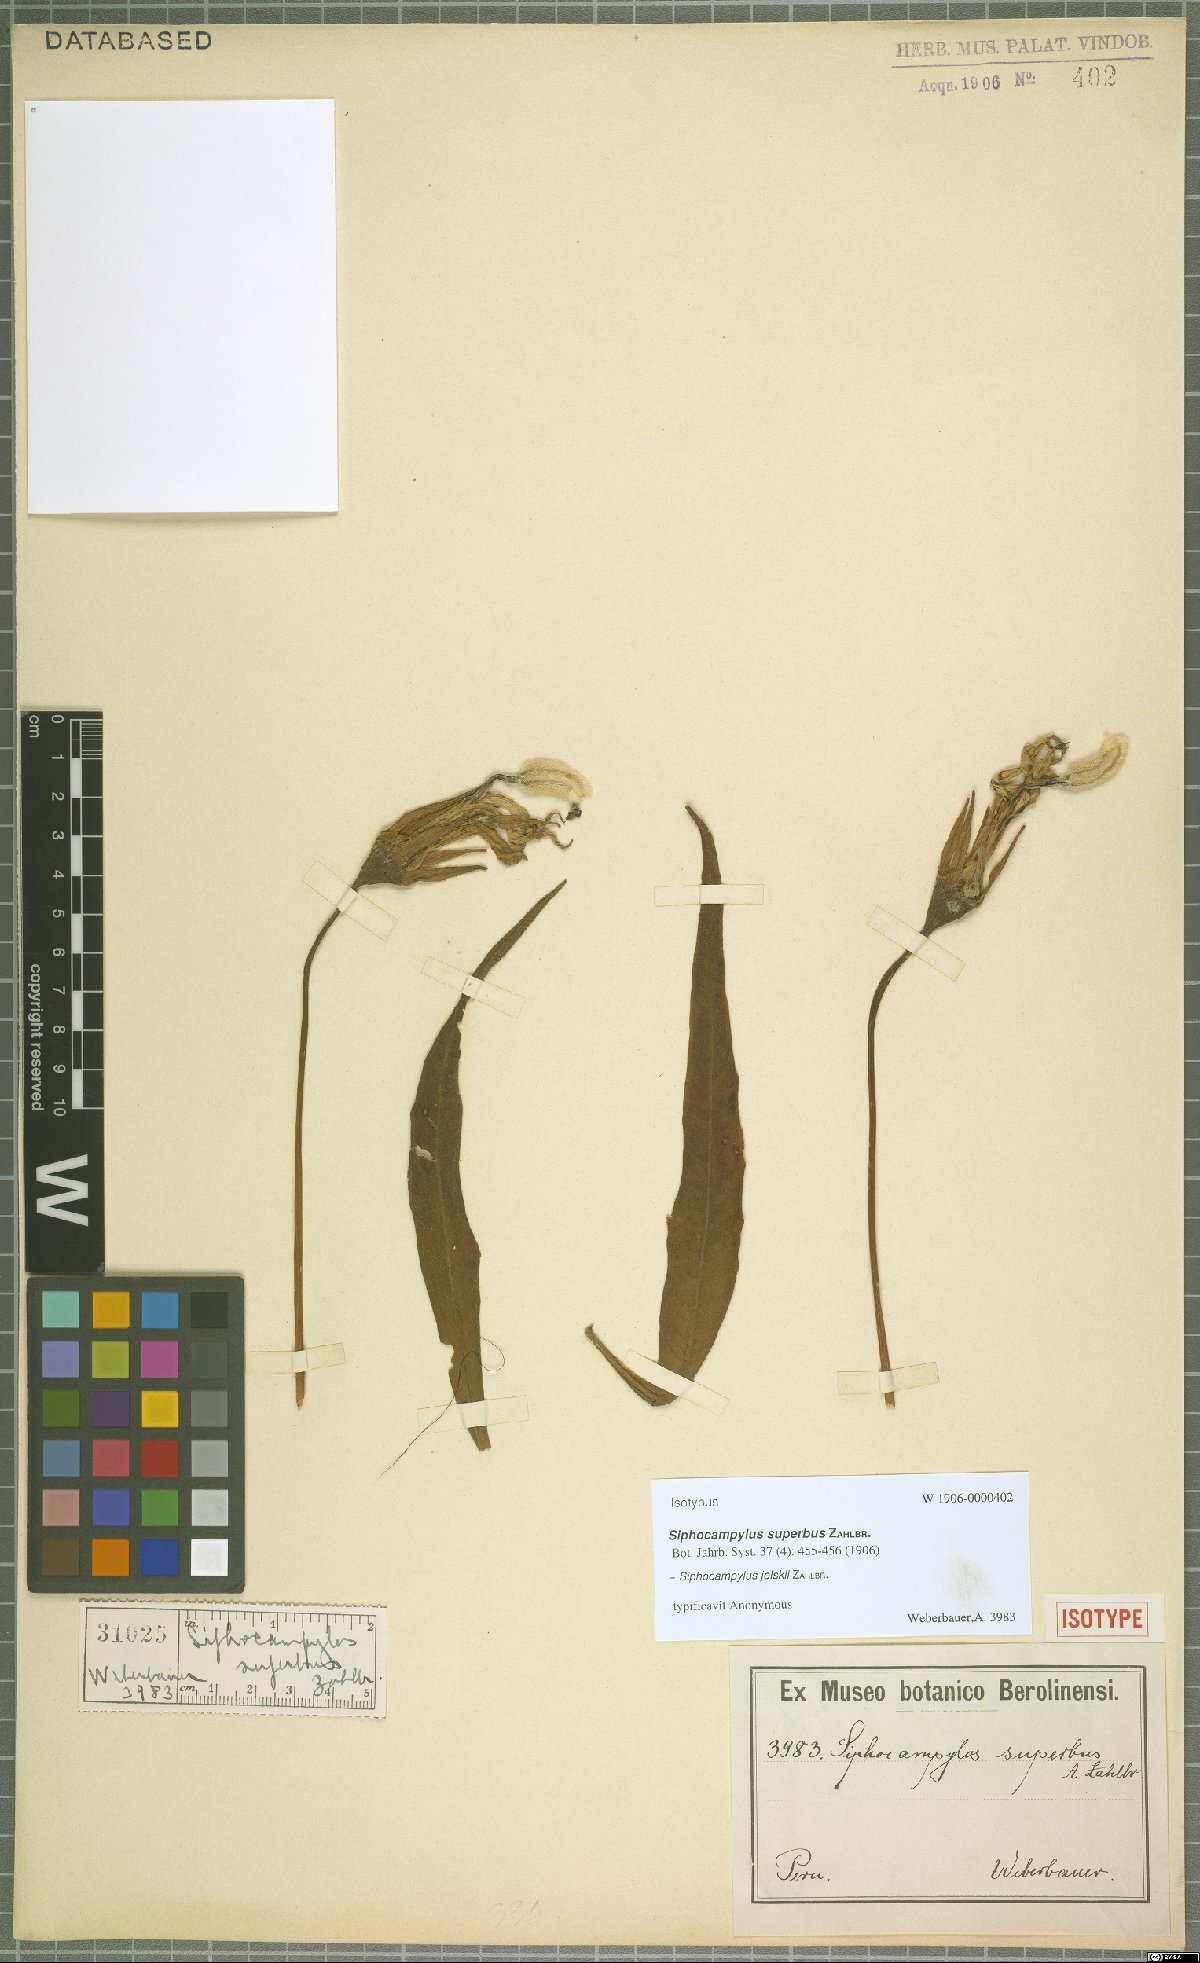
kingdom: Plantae
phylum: Tracheophyta
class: Magnoliopsida
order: Asterales
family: Campanulaceae
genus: Siphocampylus
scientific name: Siphocampylus jelskii
